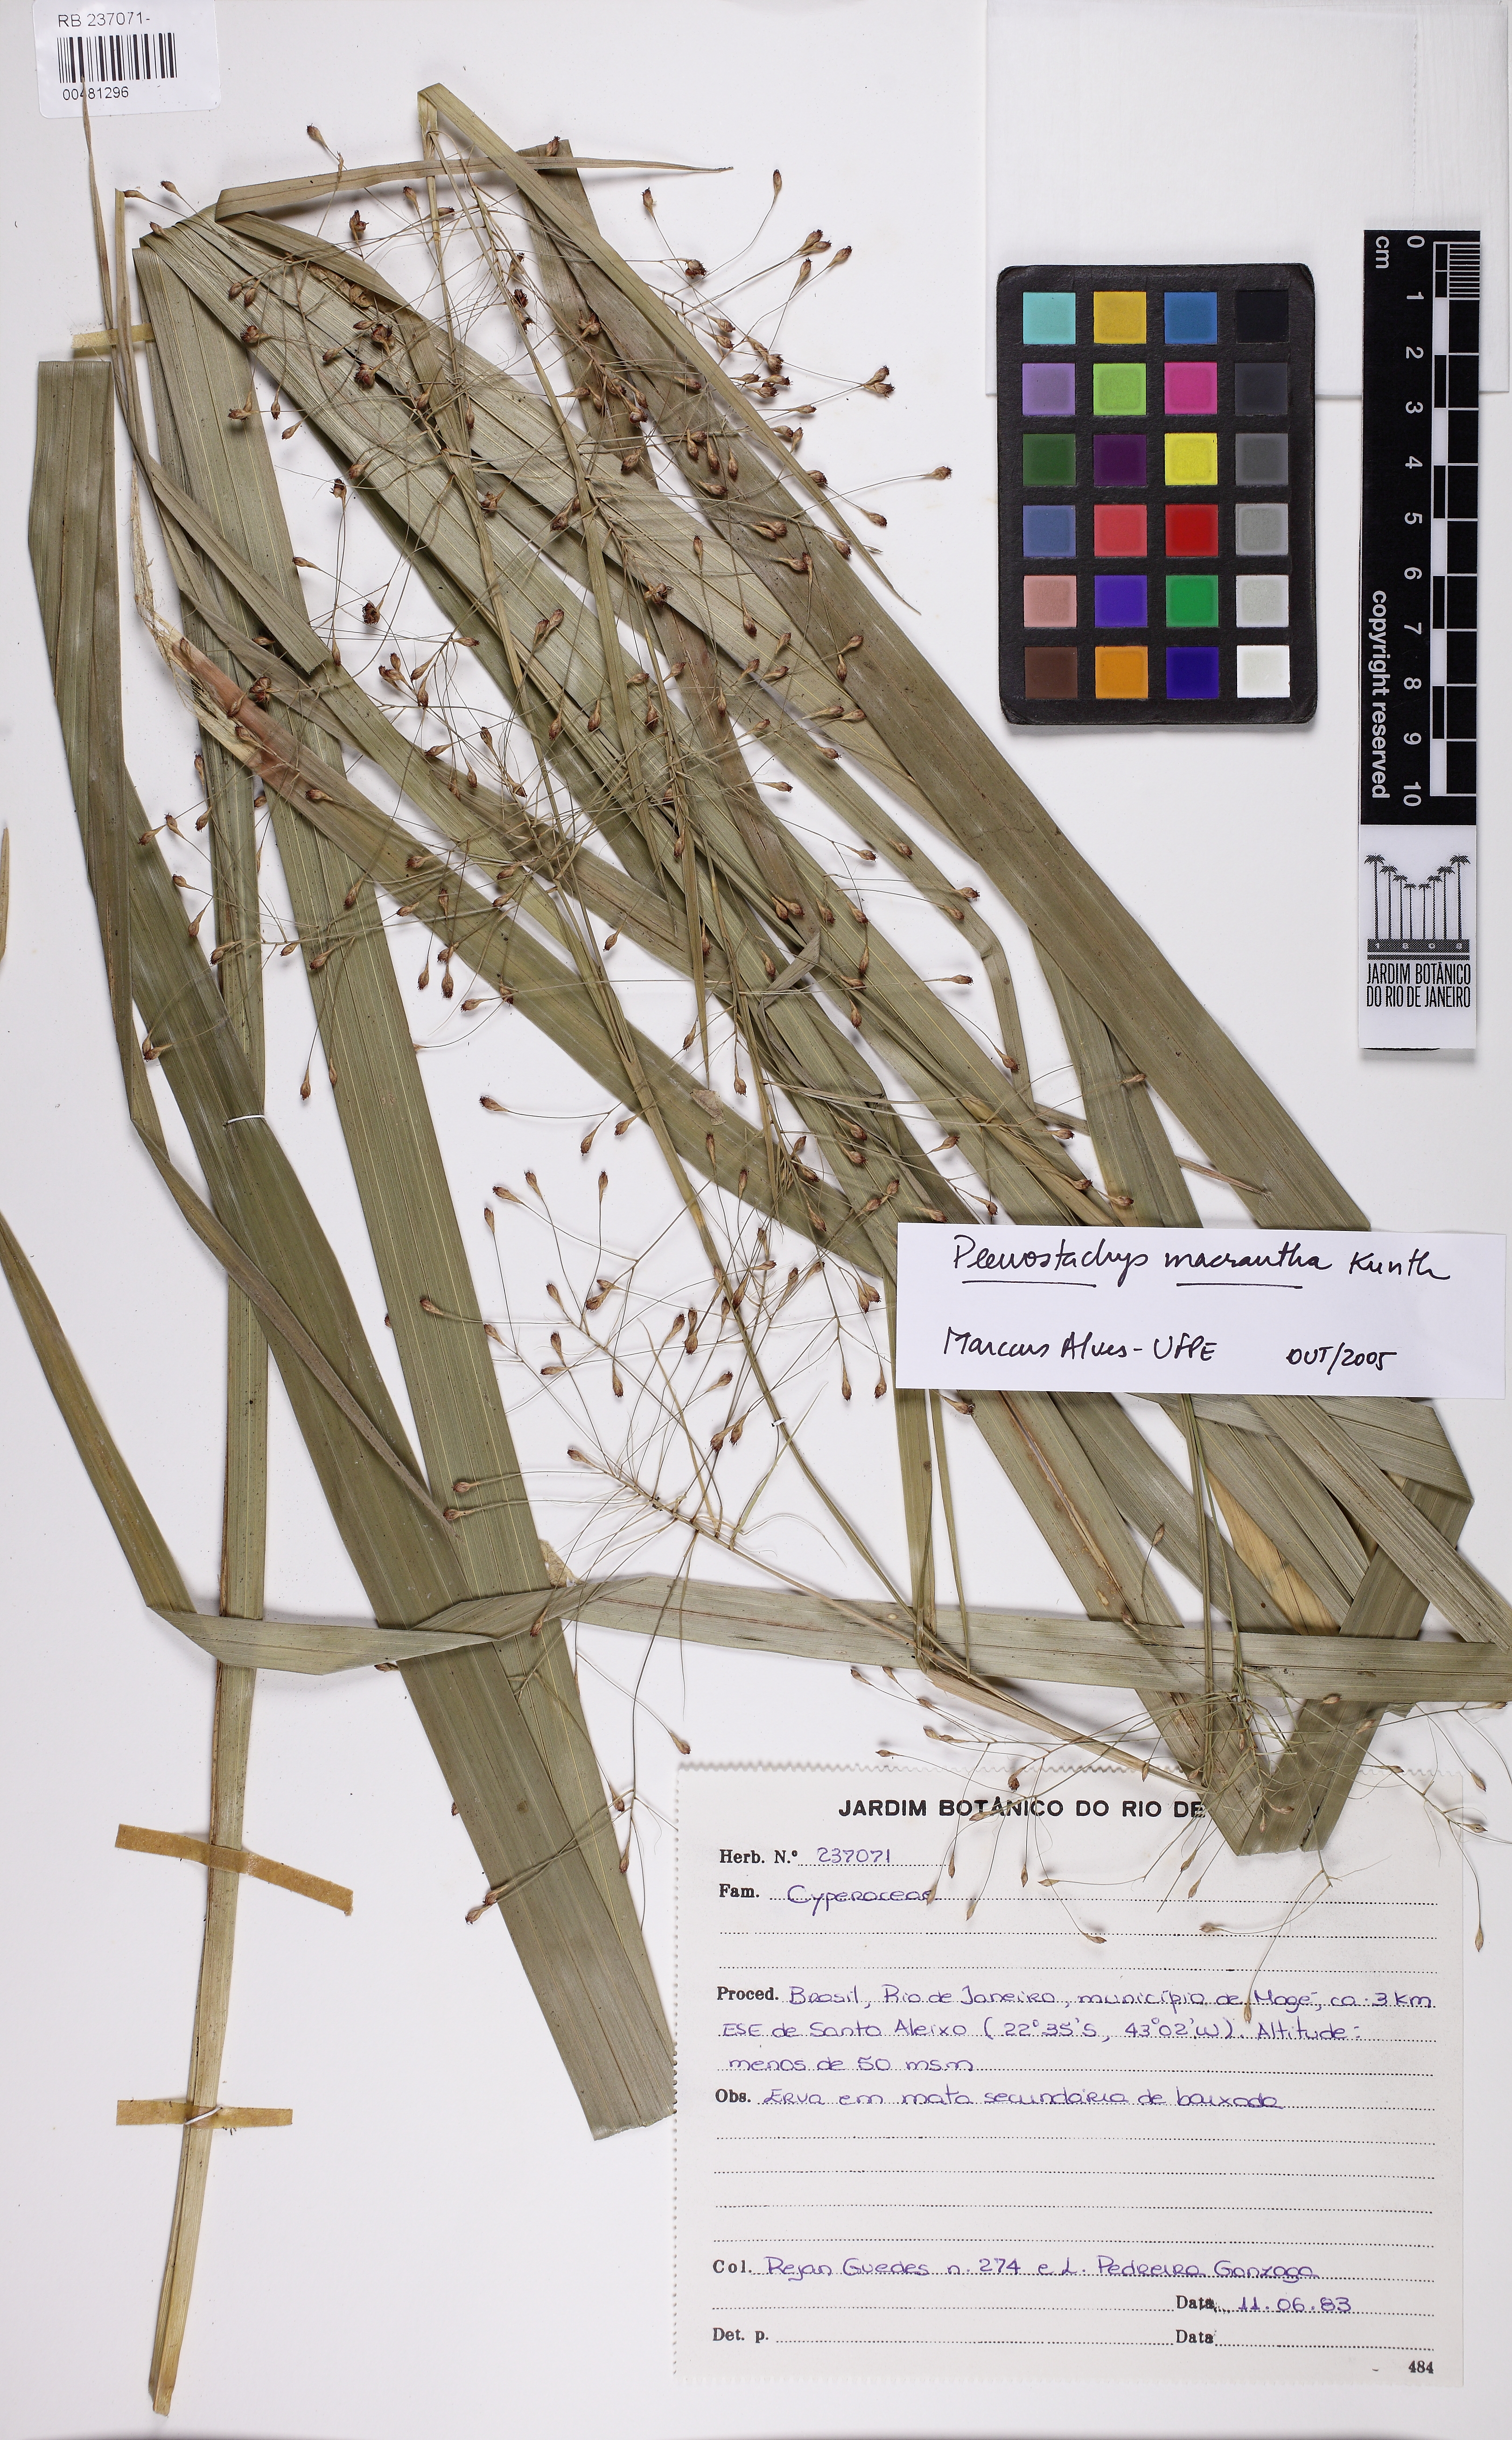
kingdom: Plantae
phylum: Tracheophyta
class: Liliopsida
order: Poales
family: Cyperaceae
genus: Rhynchospora
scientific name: Rhynchospora macrantha
